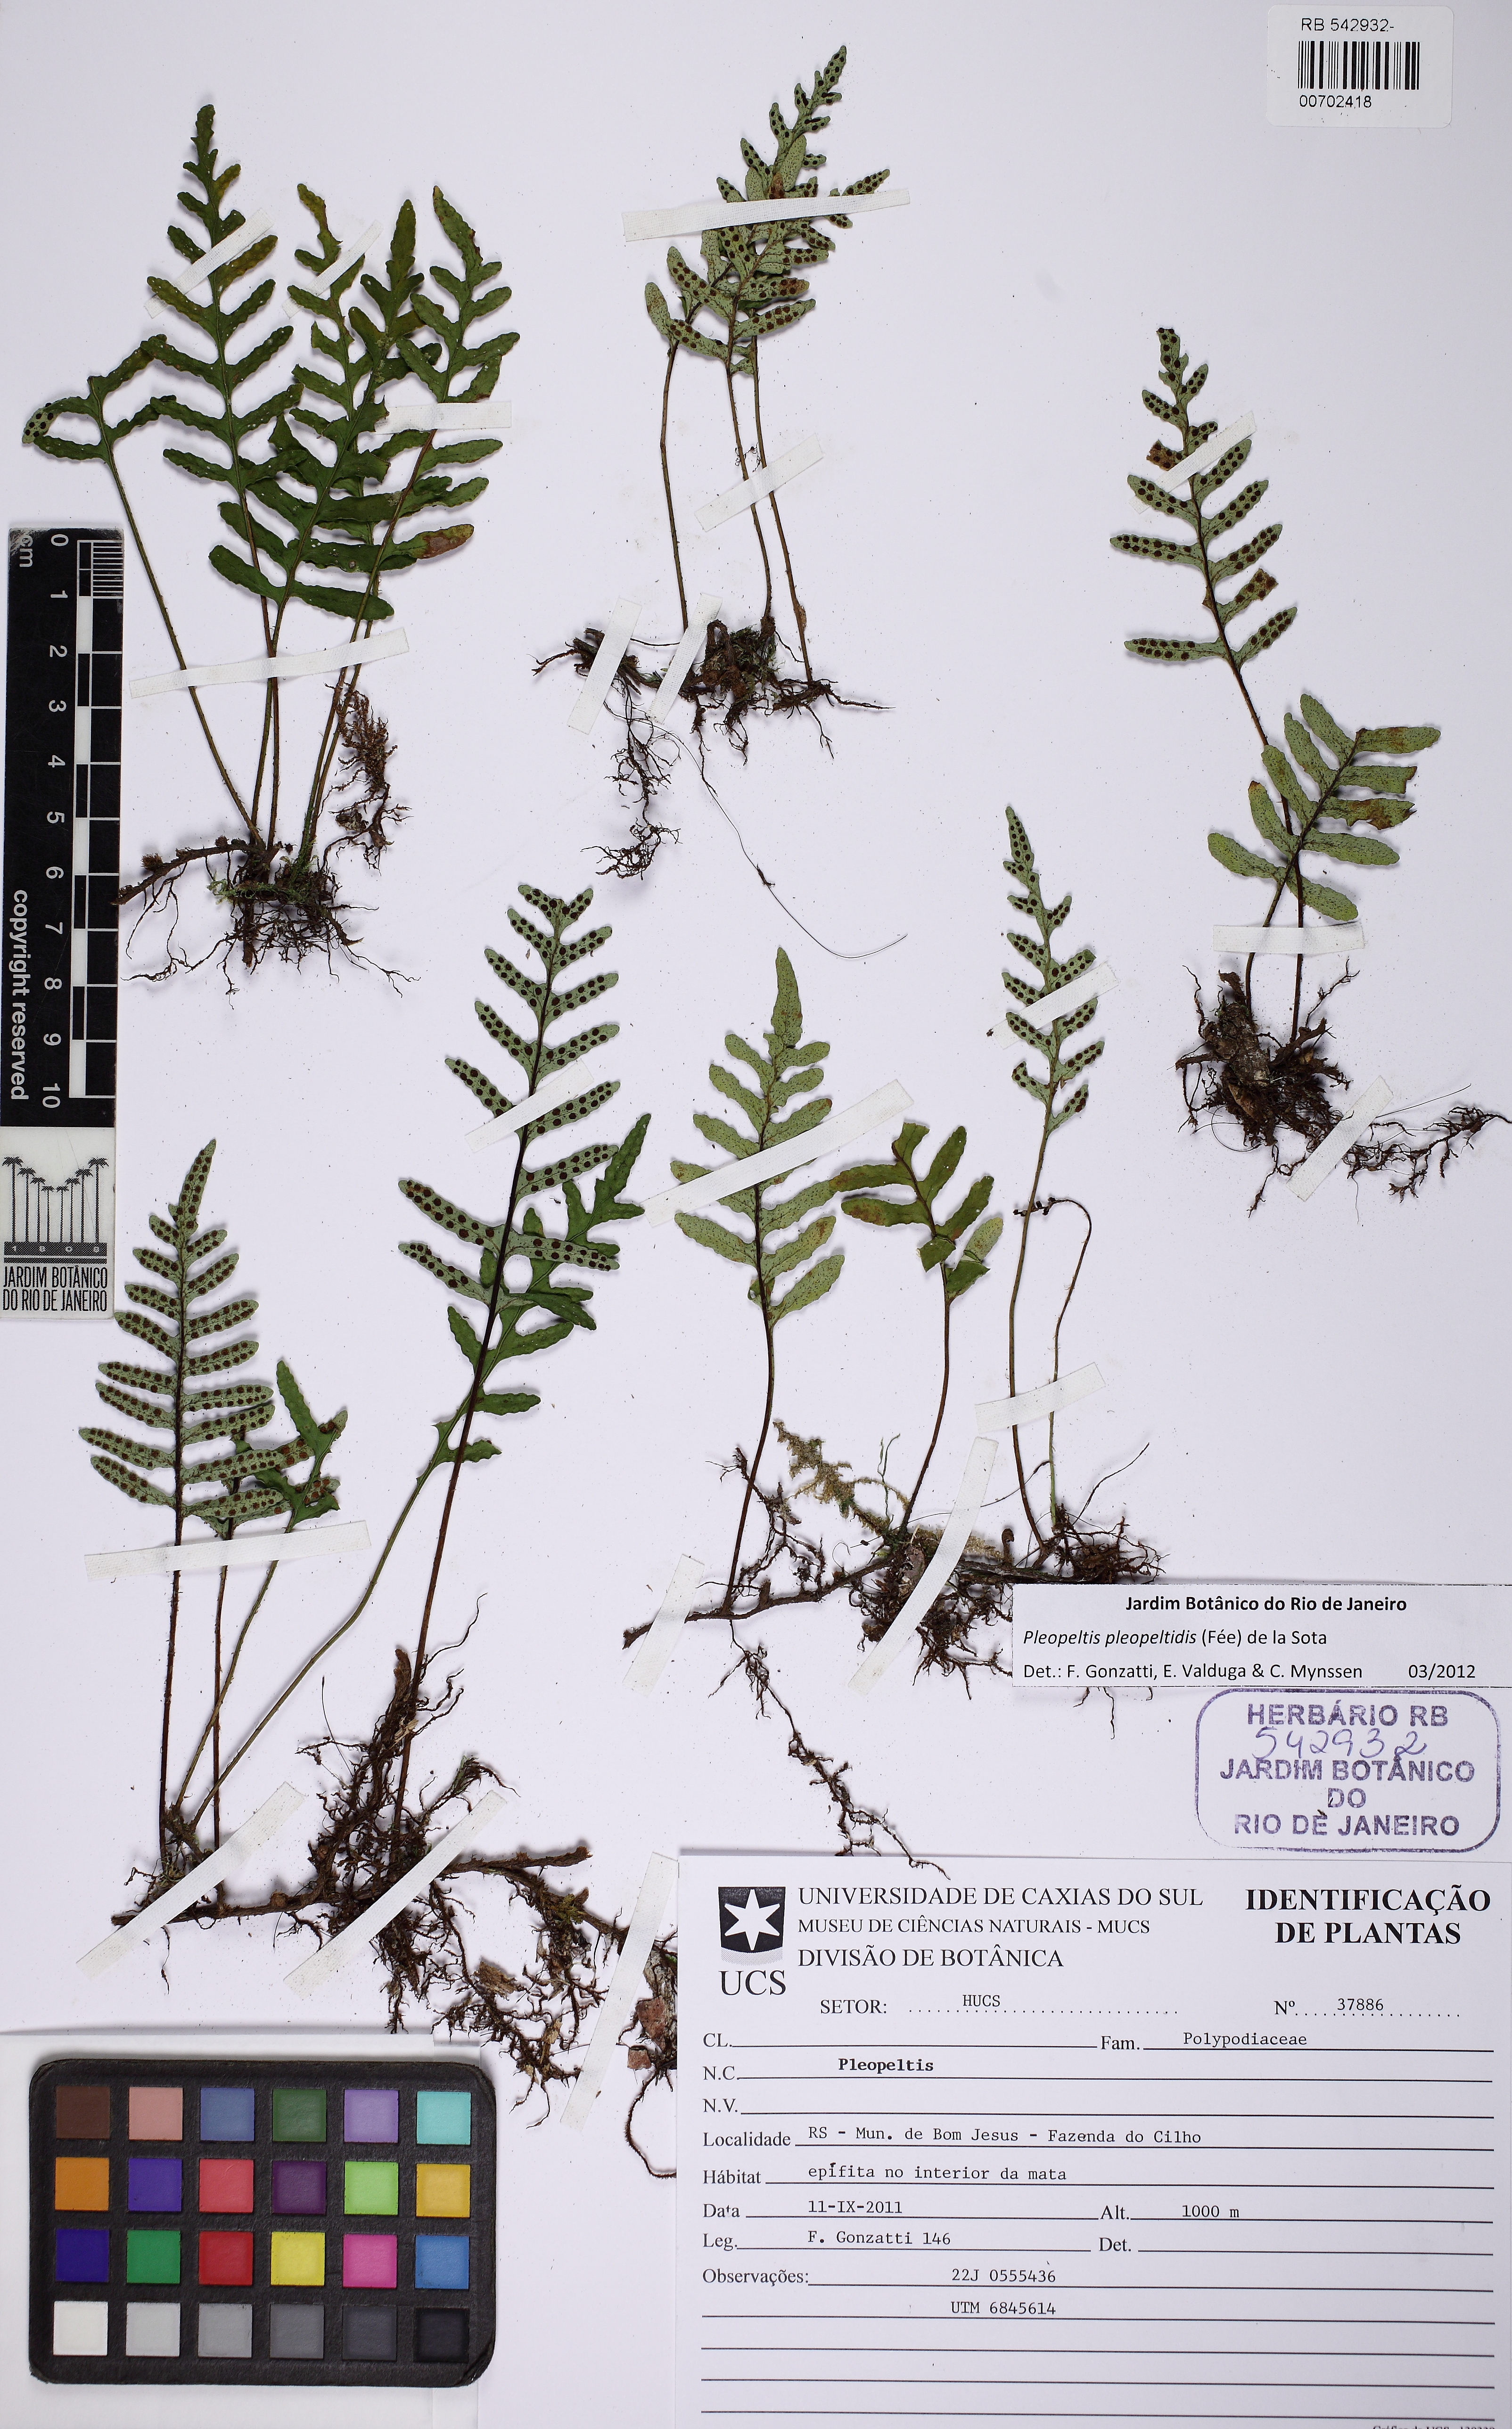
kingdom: Plantae
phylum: Tracheophyta
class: Polypodiopsida
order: Polypodiales
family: Polypodiaceae
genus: Pleopeltis
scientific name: Pleopeltis pleopeltidis
